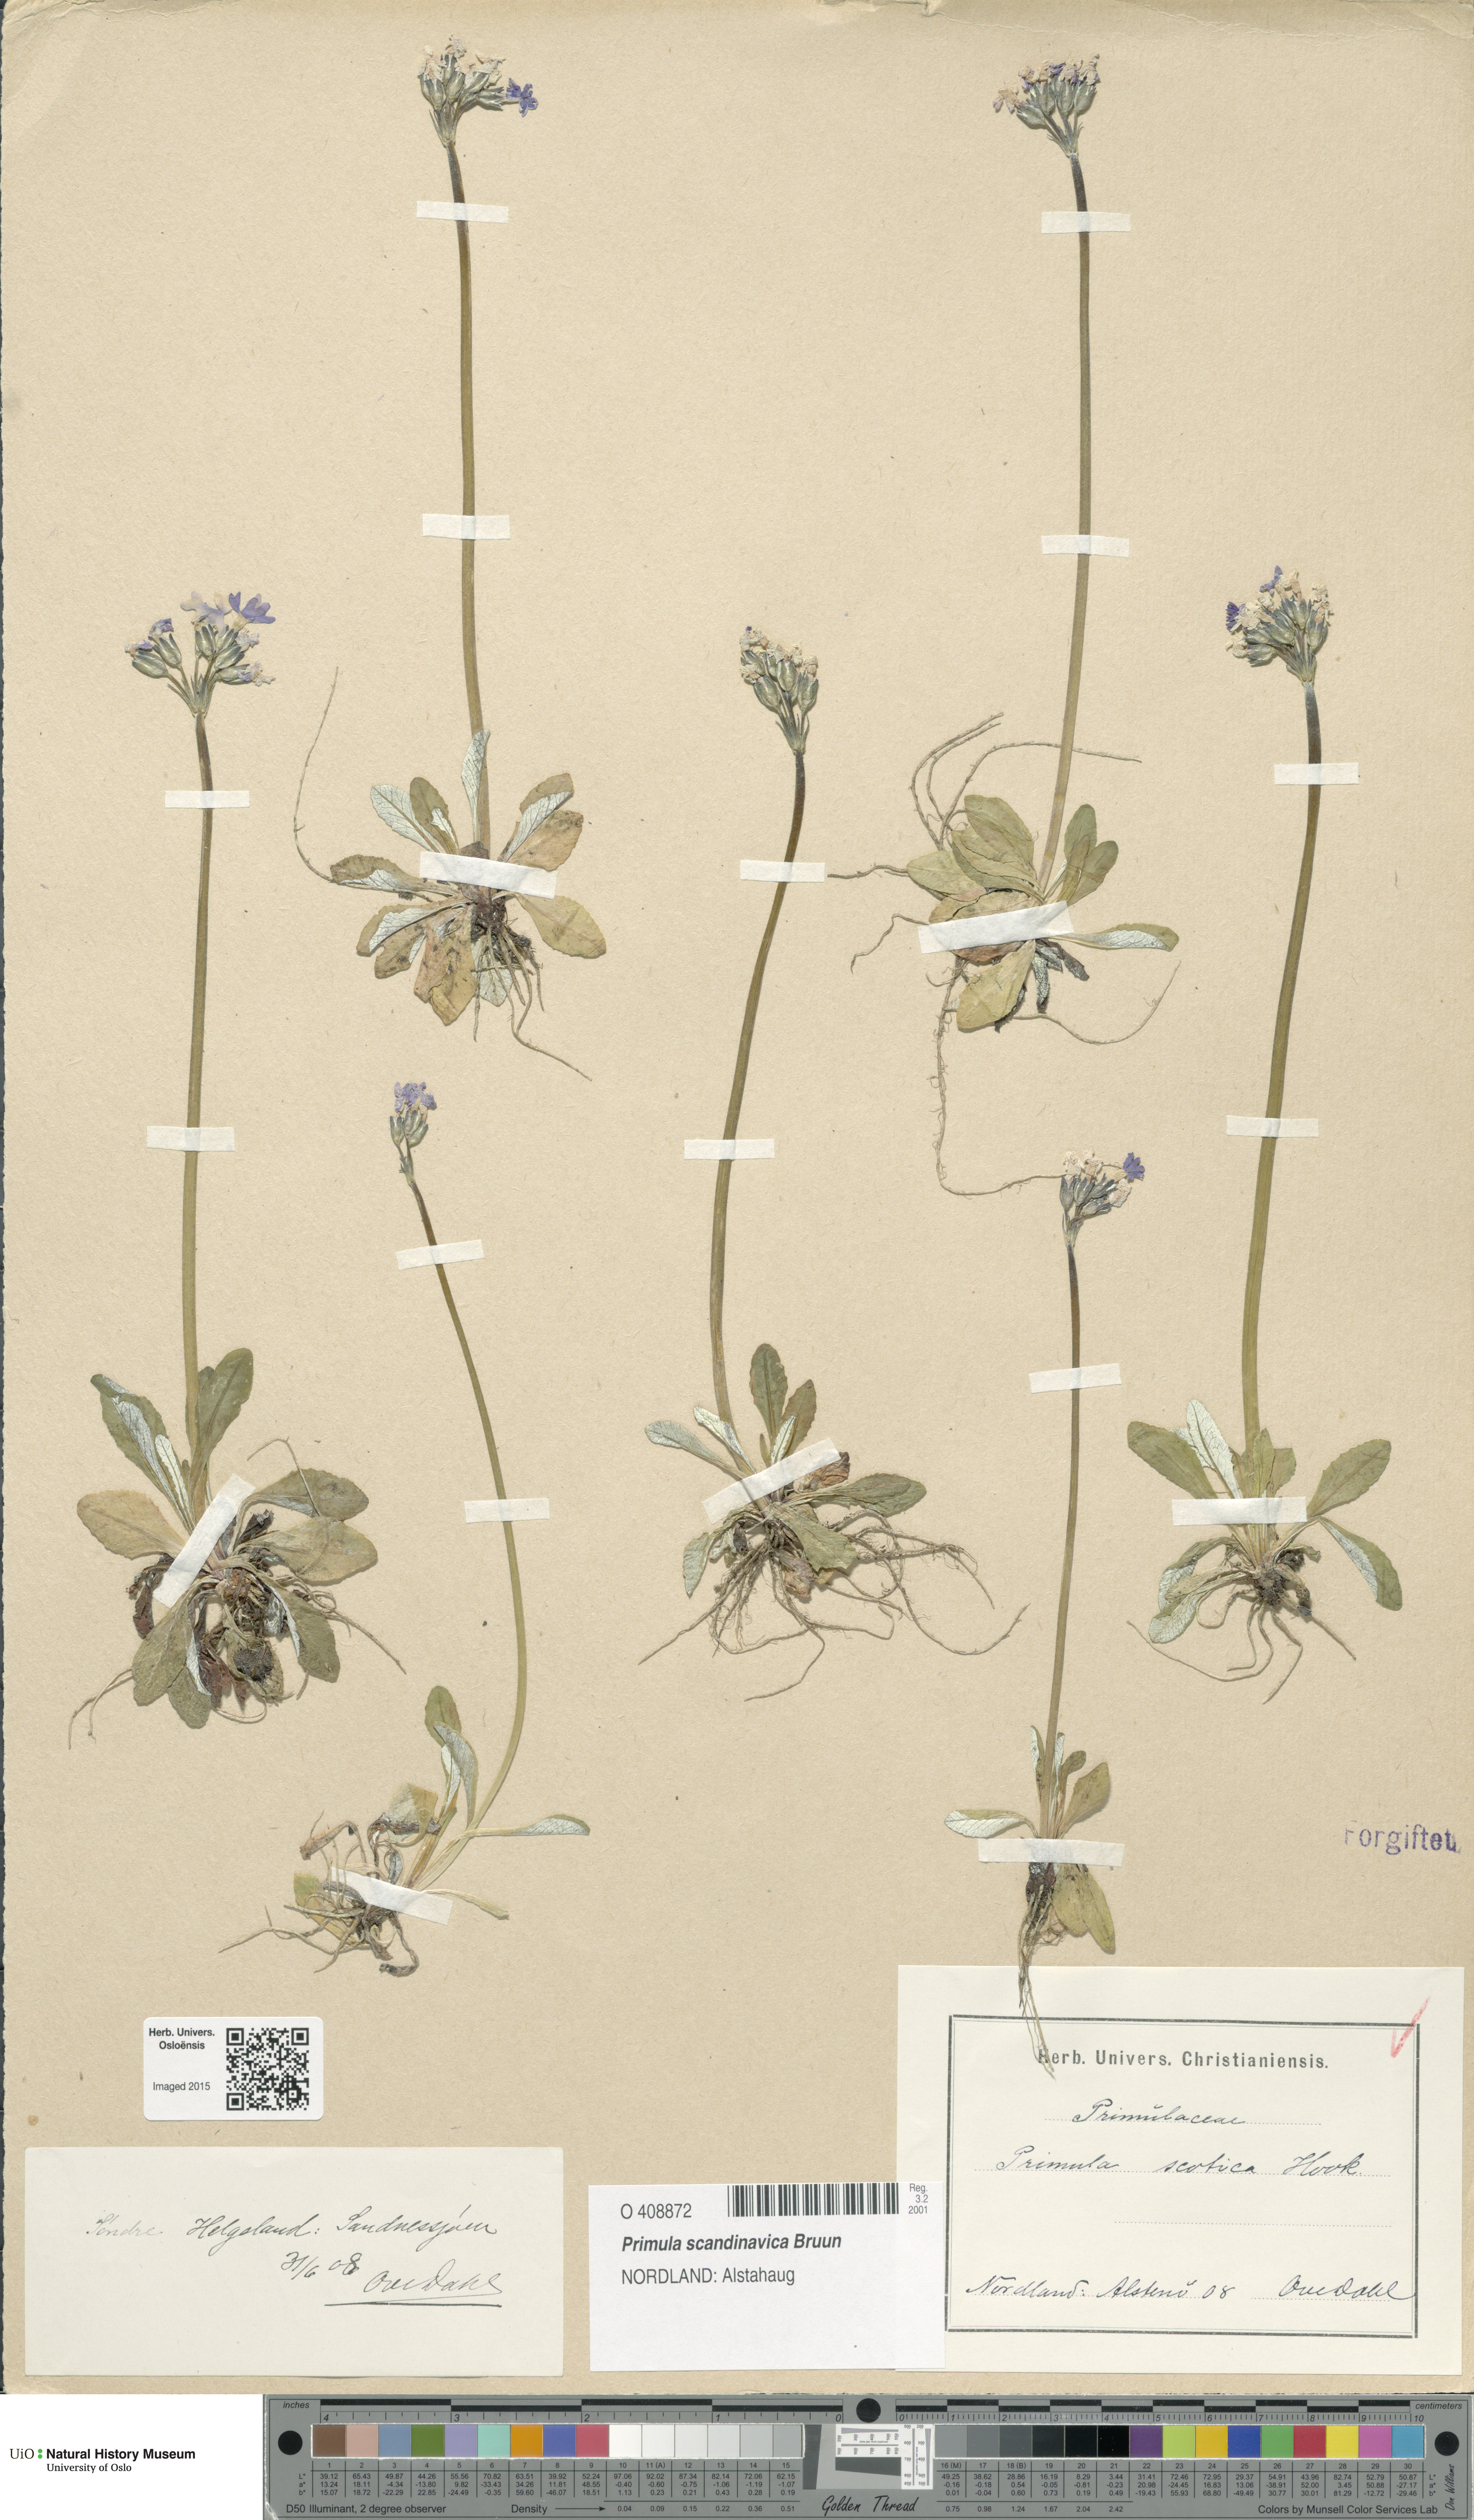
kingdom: Plantae
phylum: Tracheophyta
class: Magnoliopsida
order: Ericales
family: Primulaceae
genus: Primula
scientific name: Primula scandinavica
